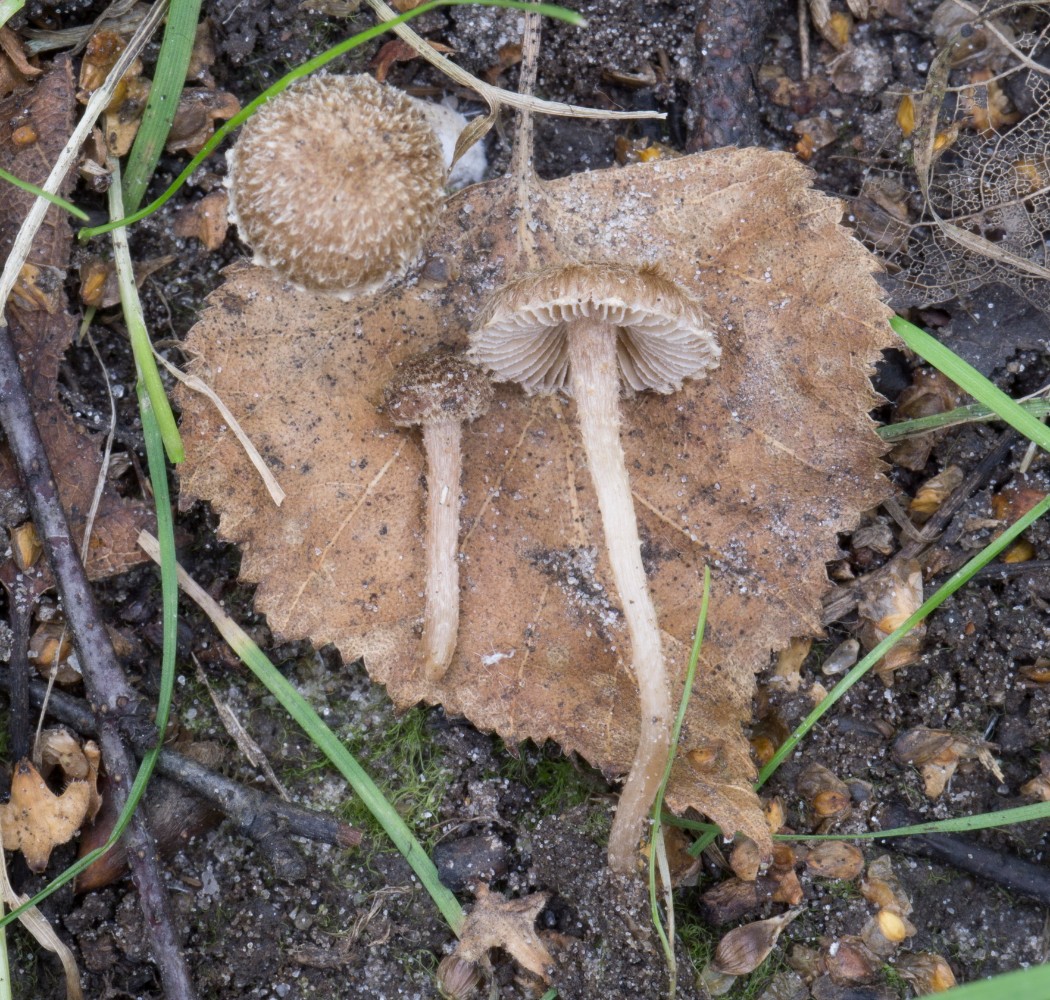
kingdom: Fungi
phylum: Basidiomycota
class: Agaricomycetes
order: Agaricales
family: Inocybaceae
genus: Inocybe
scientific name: Inocybe
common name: trævlhat
